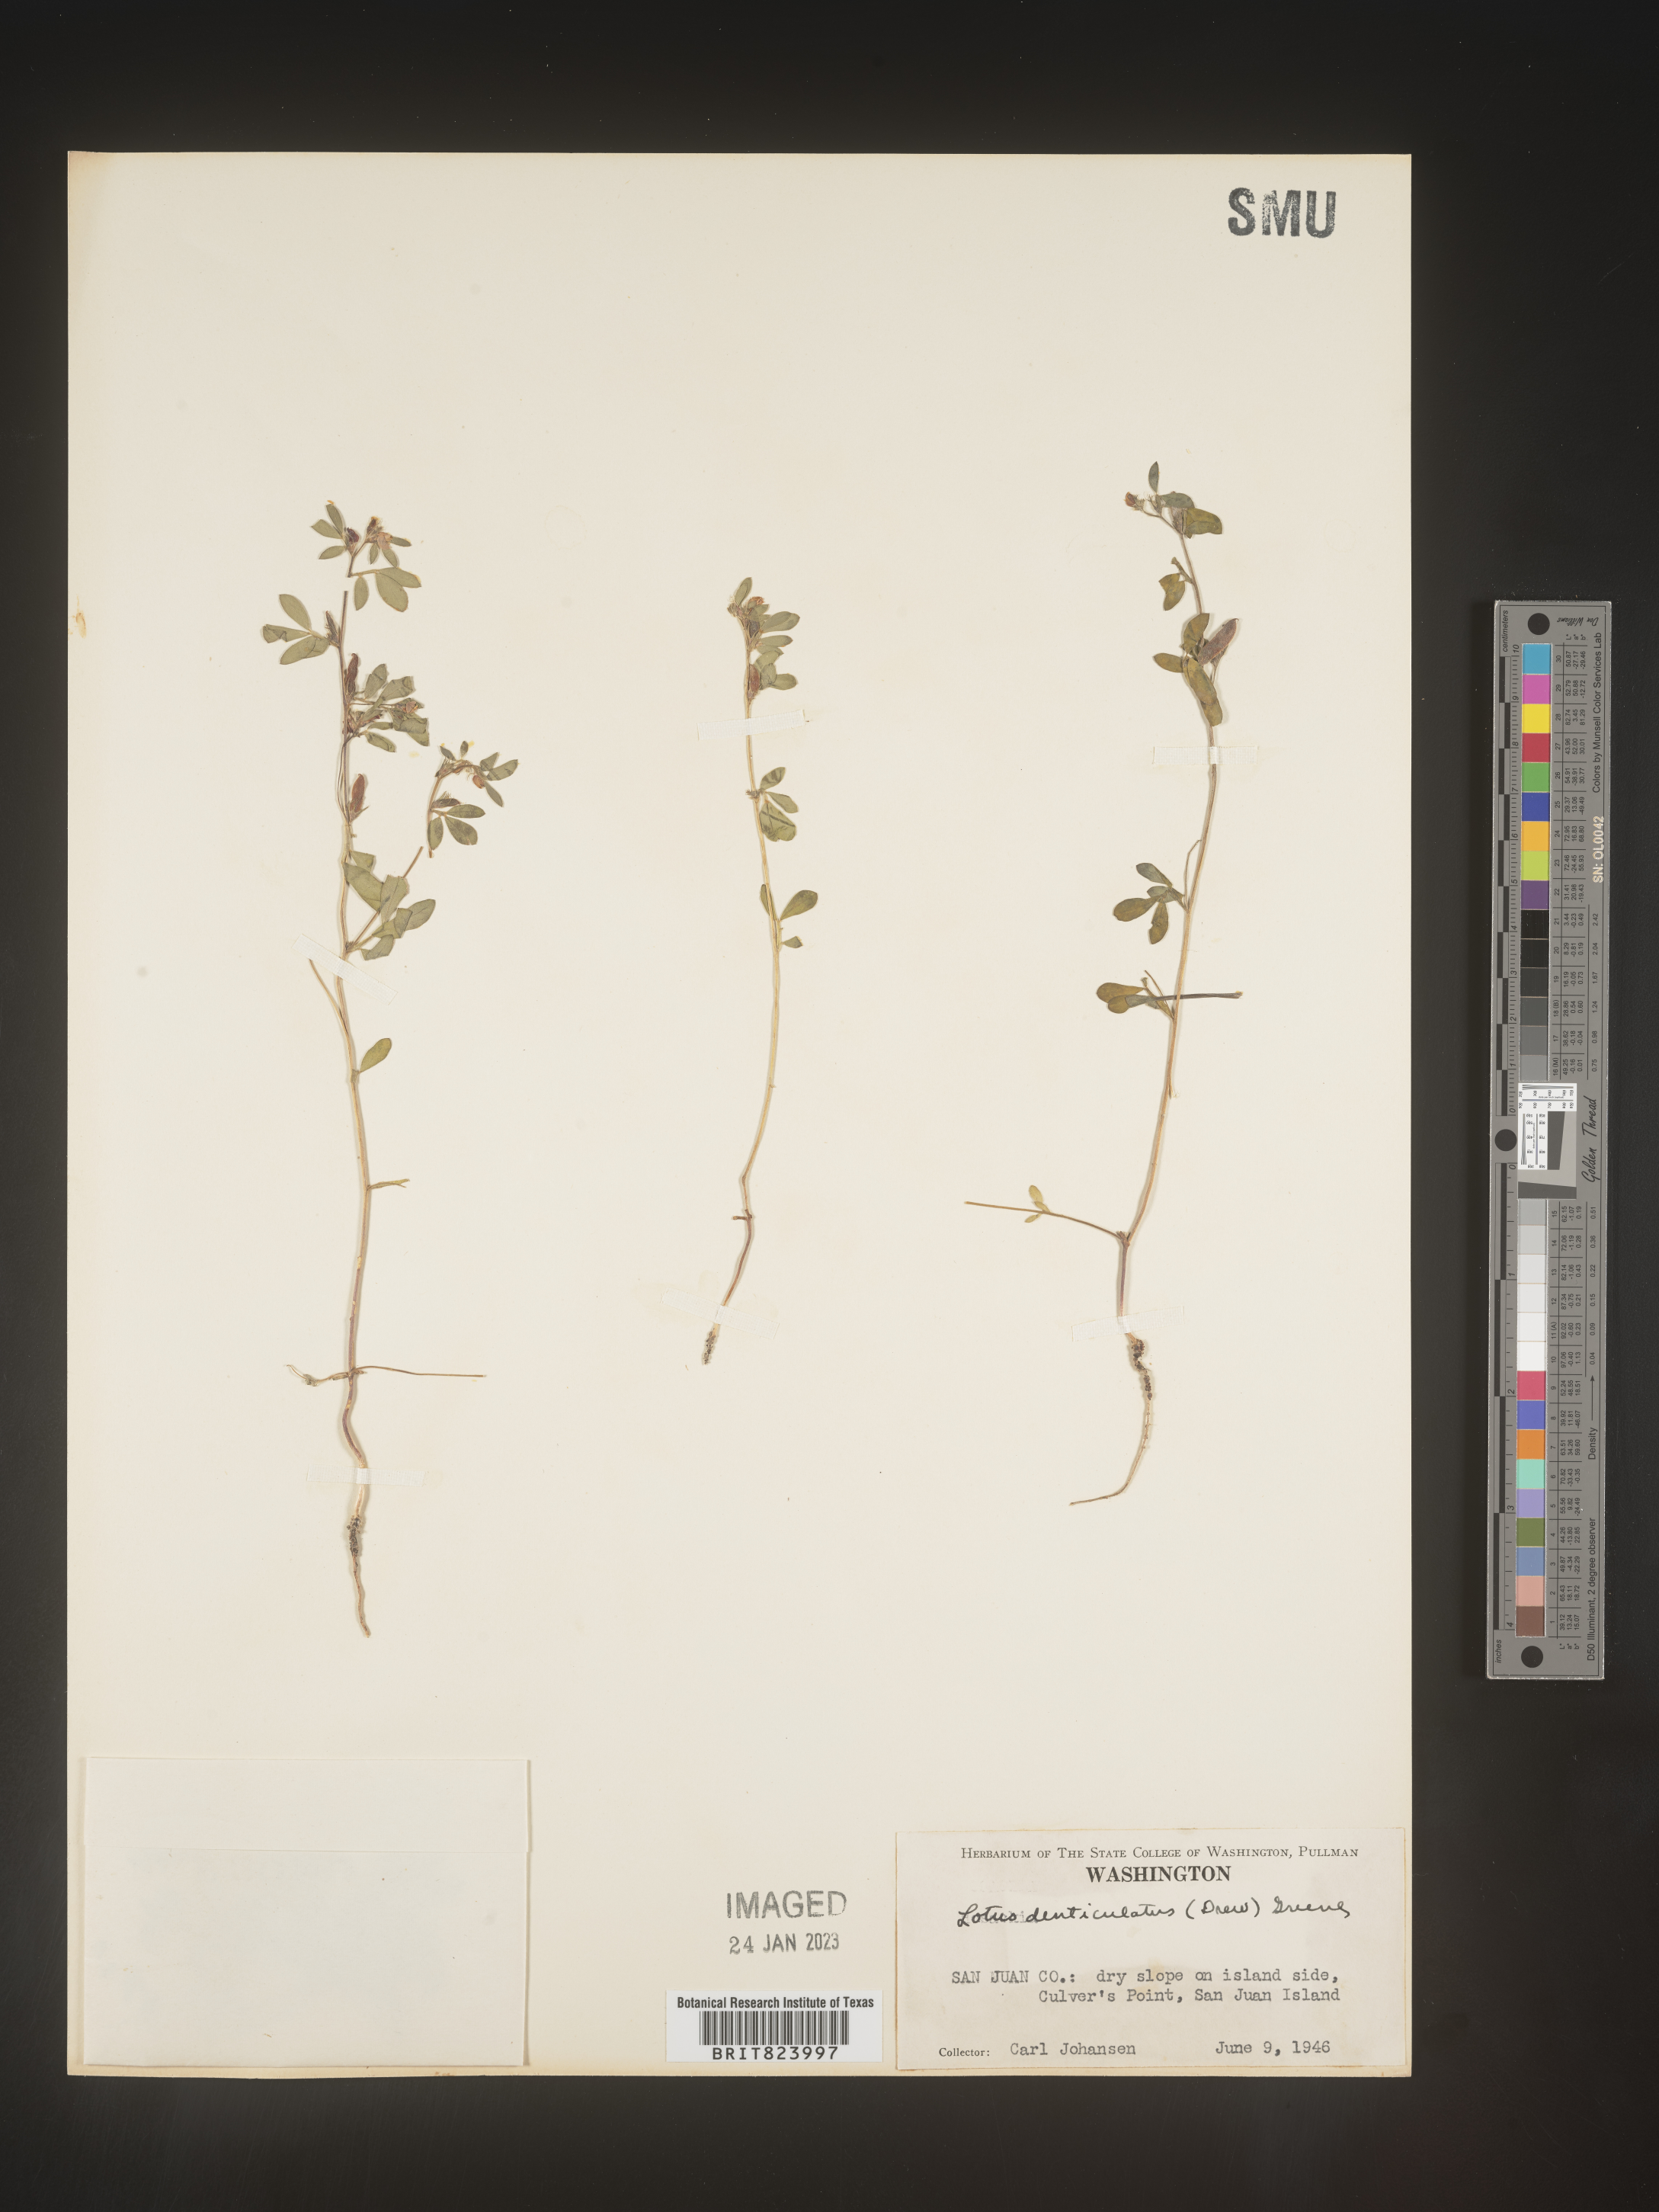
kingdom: Plantae
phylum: Tracheophyta
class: Magnoliopsida
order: Fabales
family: Fabaceae
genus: Lotus
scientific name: Lotus
